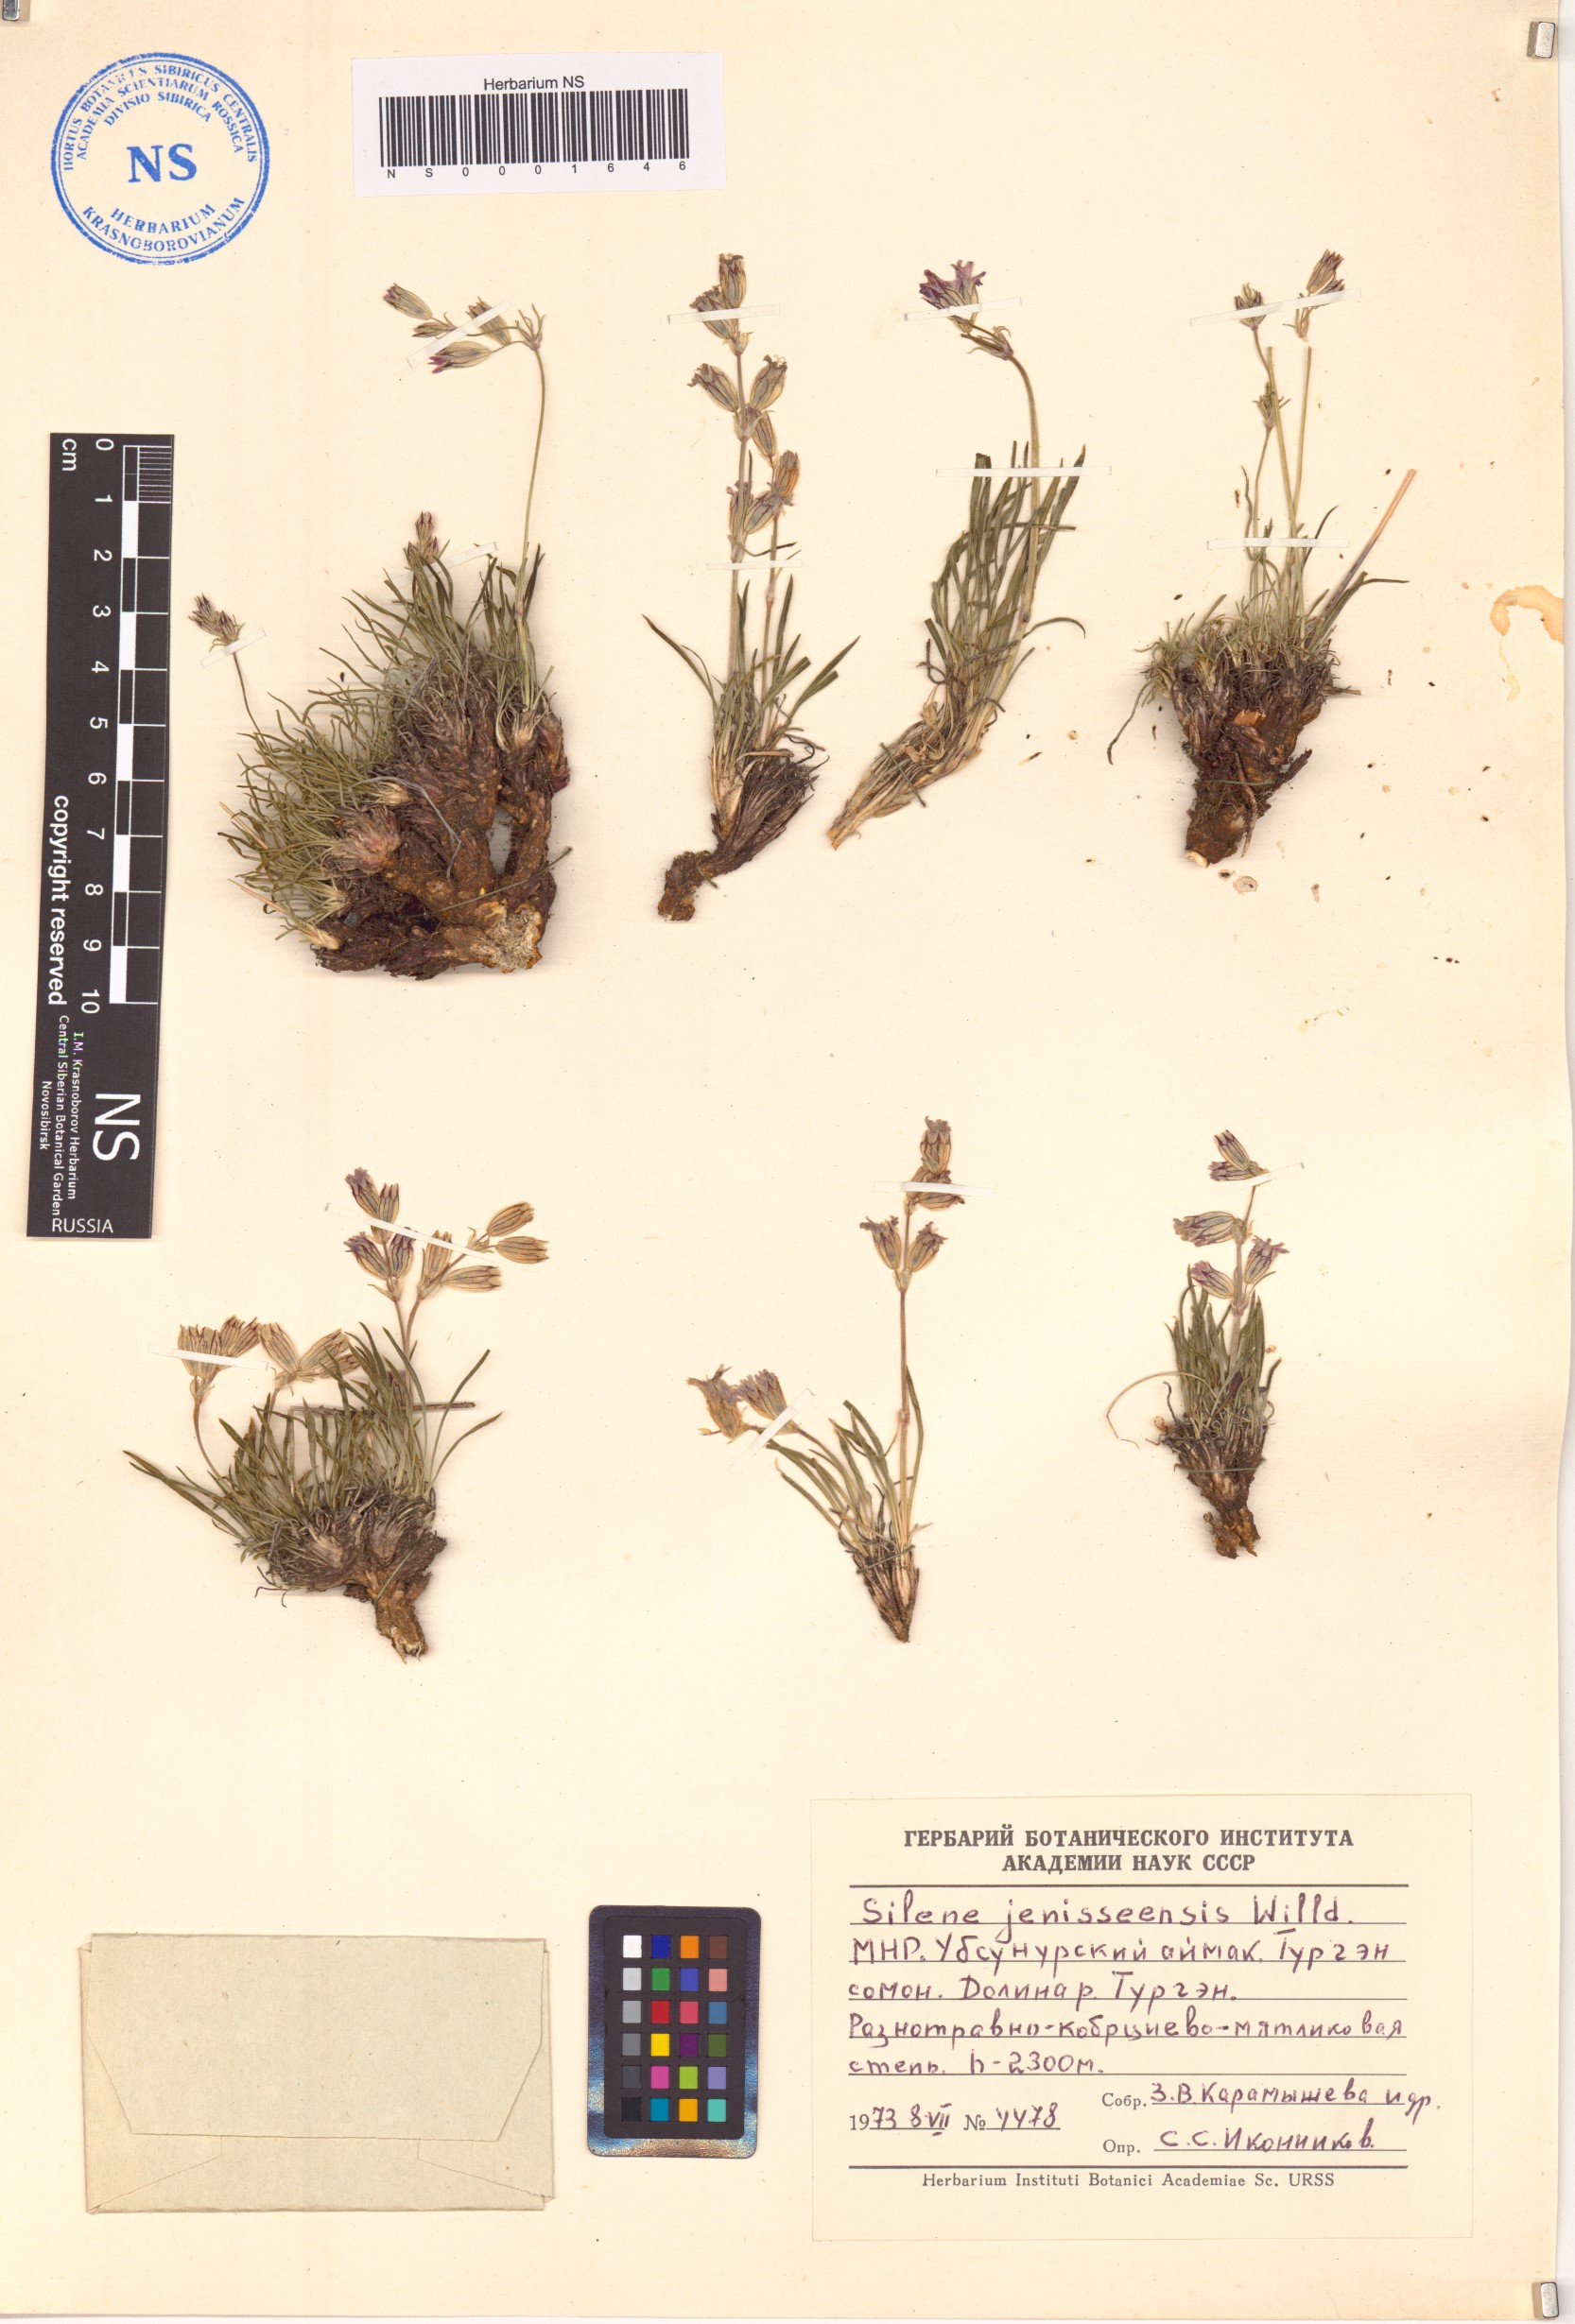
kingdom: Plantae
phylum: Tracheophyta
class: Magnoliopsida
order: Caryophyllales
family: Caryophyllaceae
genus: Silene
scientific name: Silene jeniseensis
